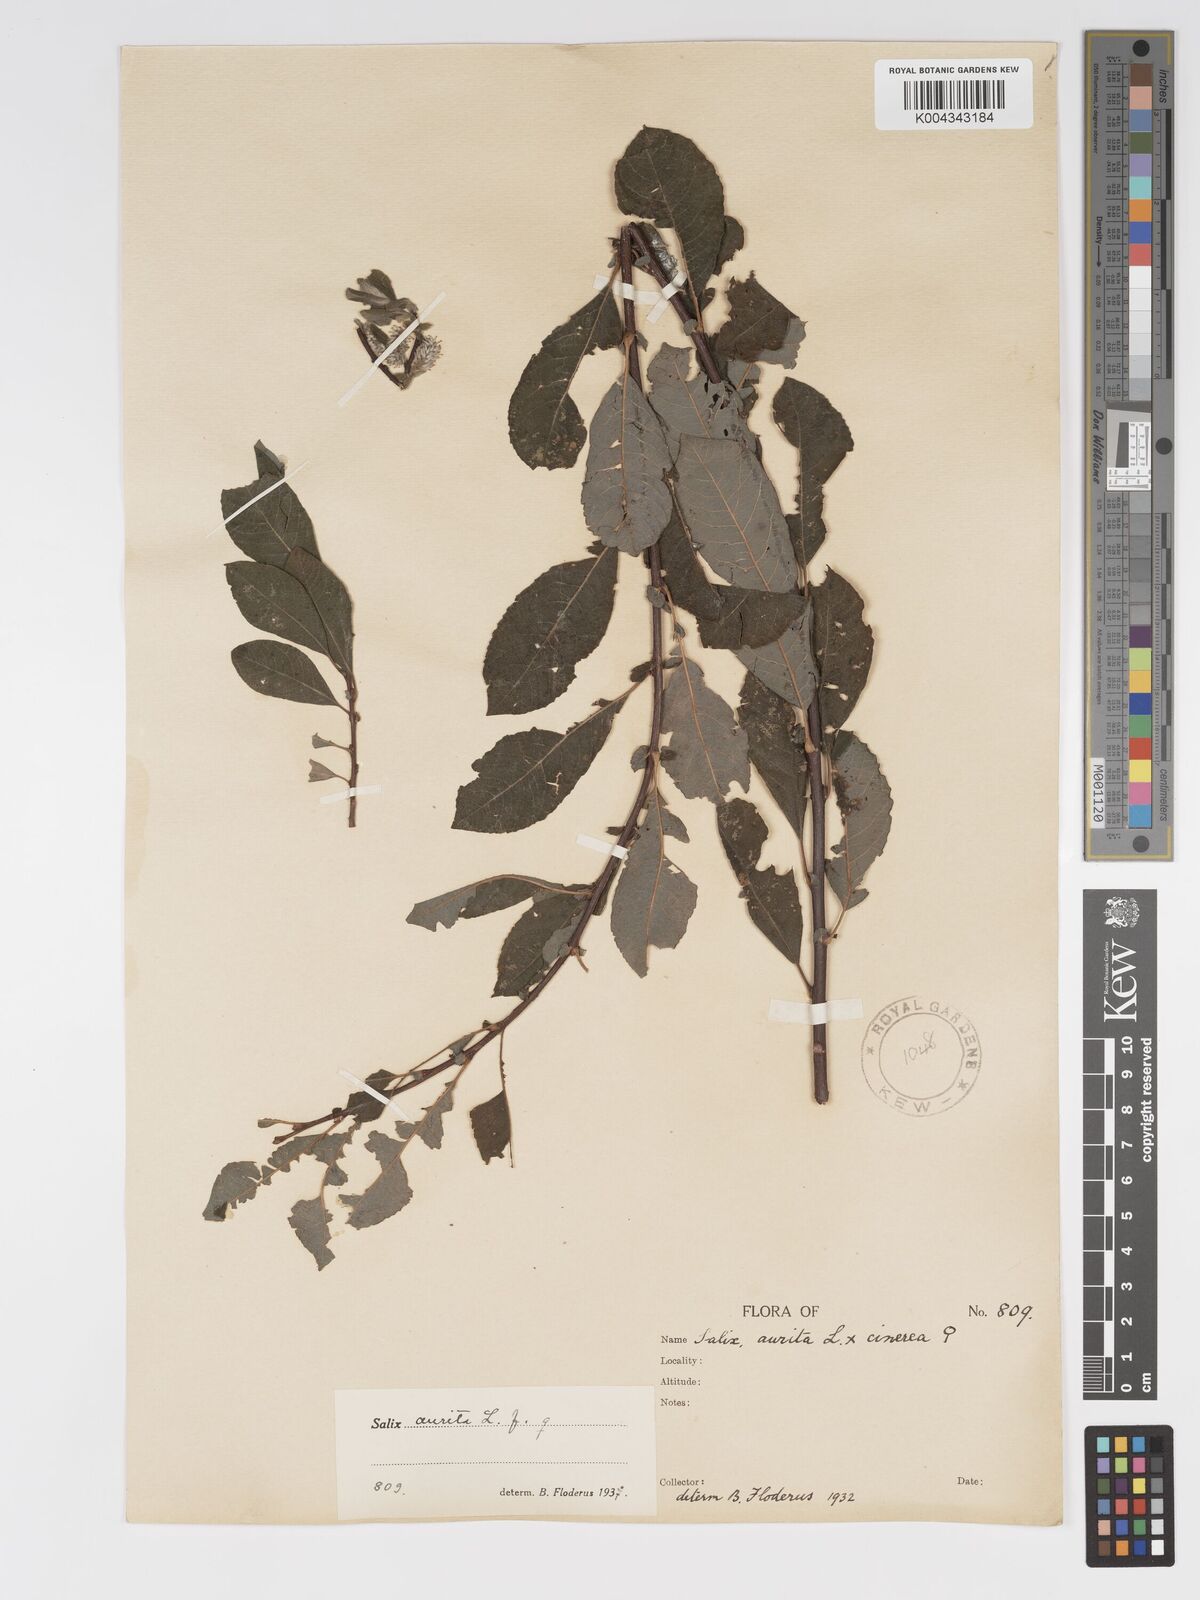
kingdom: Plantae
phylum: Tracheophyta
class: Magnoliopsida
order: Malpighiales
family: Salicaceae
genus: Salix
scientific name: Salix aurita
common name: Eared willow
